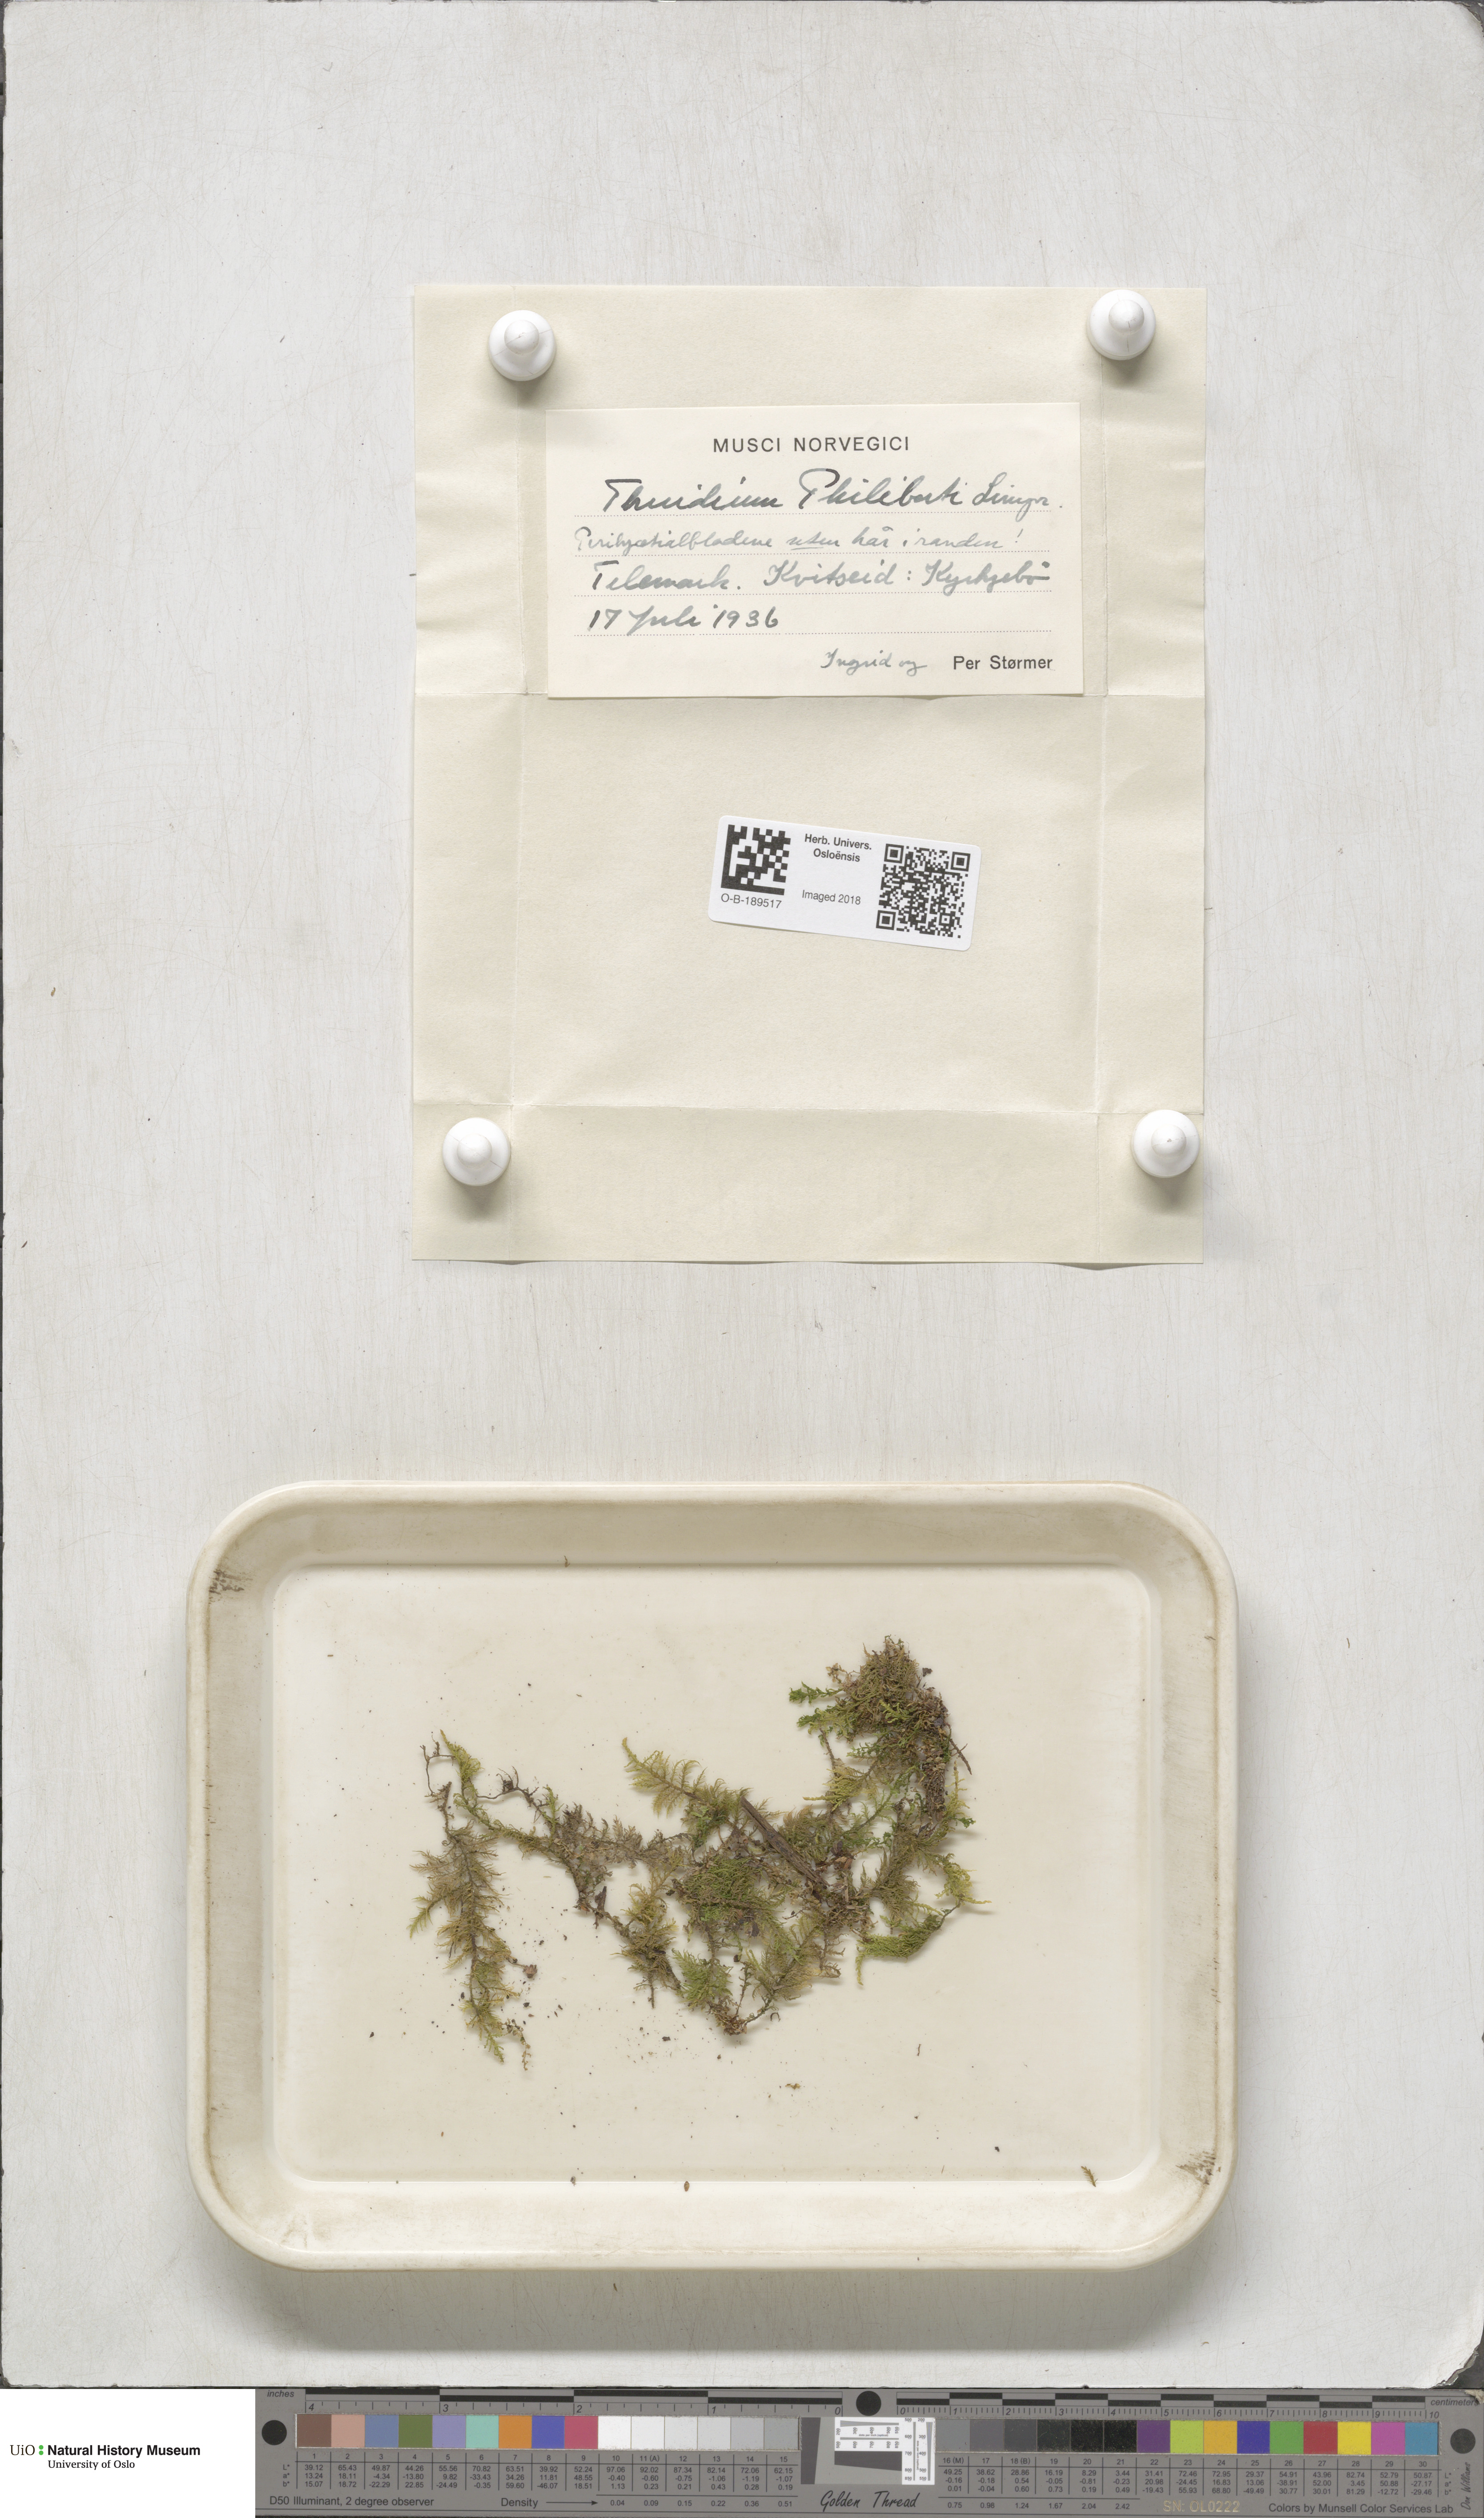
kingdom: Plantae
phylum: Bryophyta
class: Bryopsida
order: Hypnales
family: Thuidiaceae
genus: Thuidium
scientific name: Thuidium assimile
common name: Philibert's fern moss
